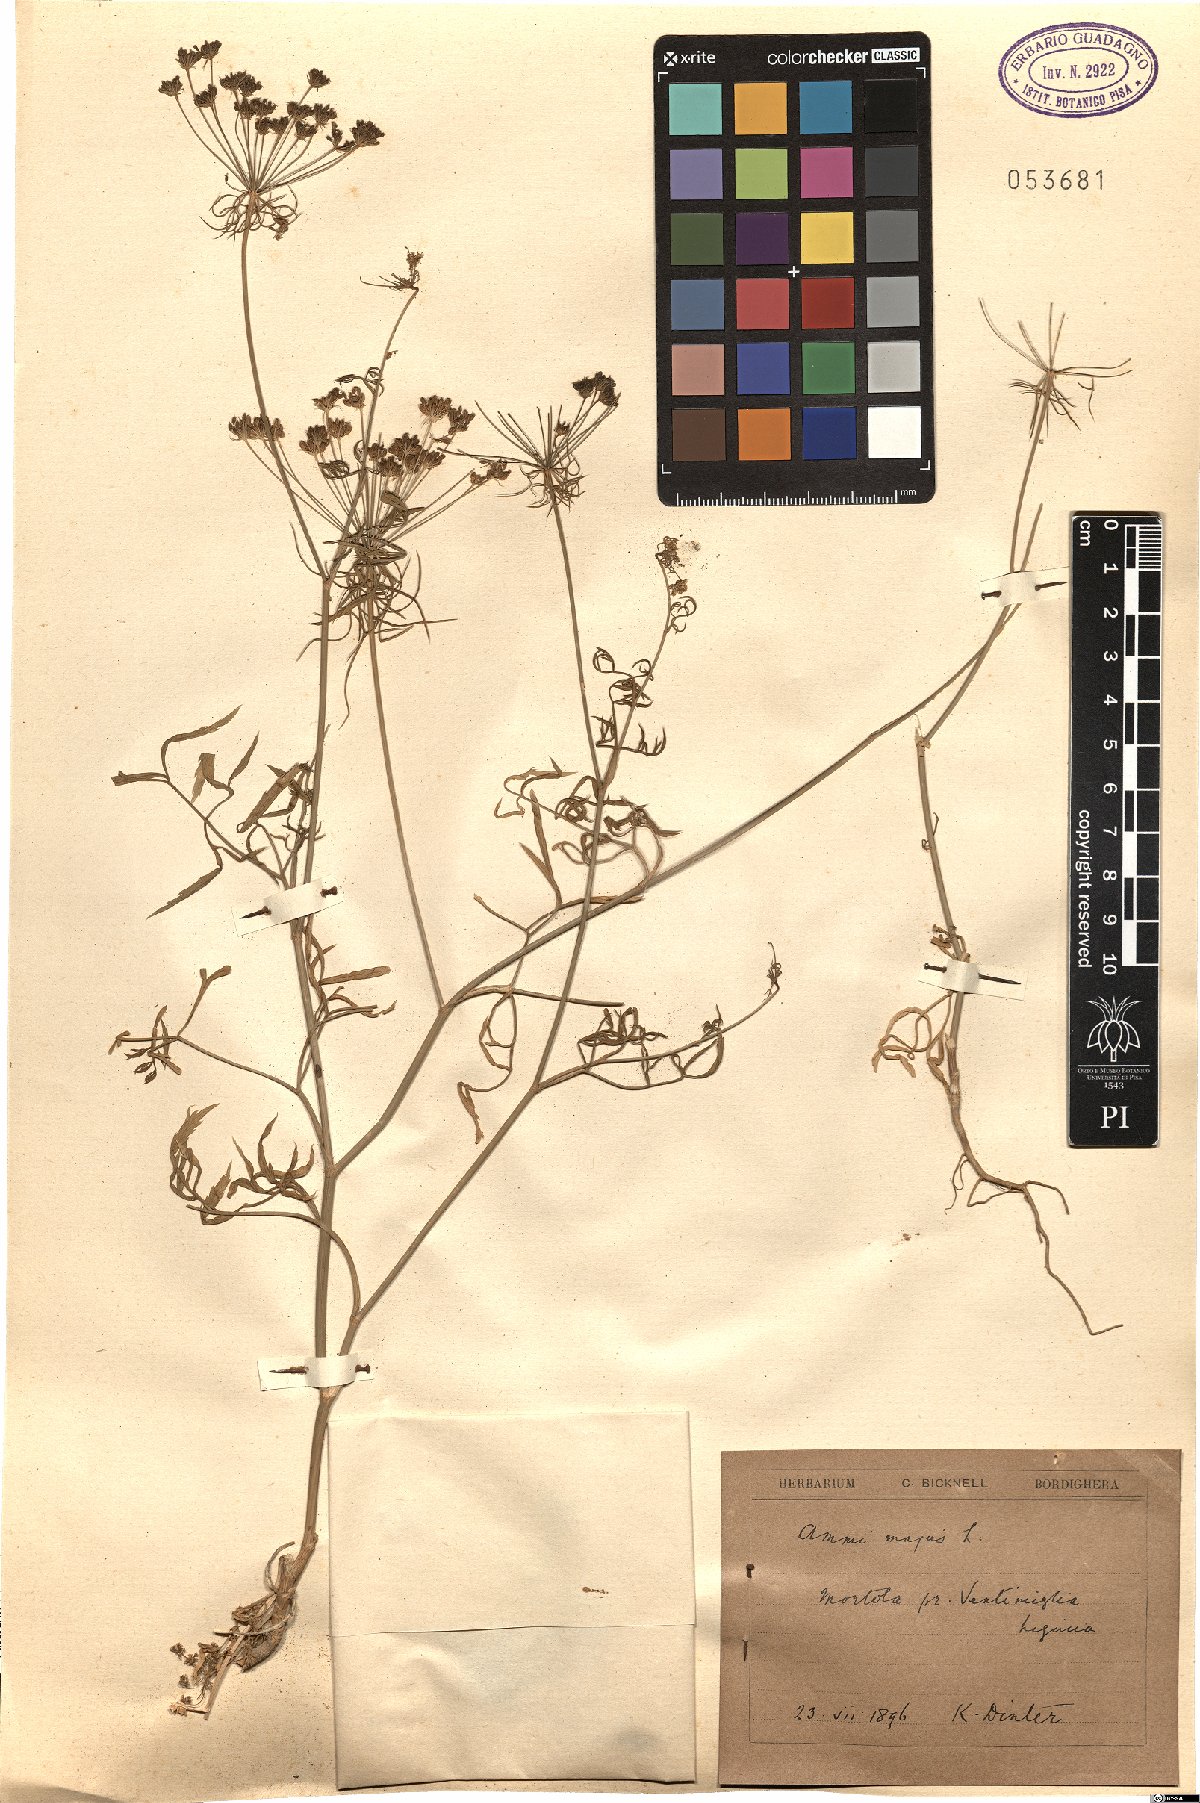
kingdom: Plantae
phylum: Tracheophyta
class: Magnoliopsida
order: Apiales
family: Apiaceae
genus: Ammi
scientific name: Ammi majus
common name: Bullwort
